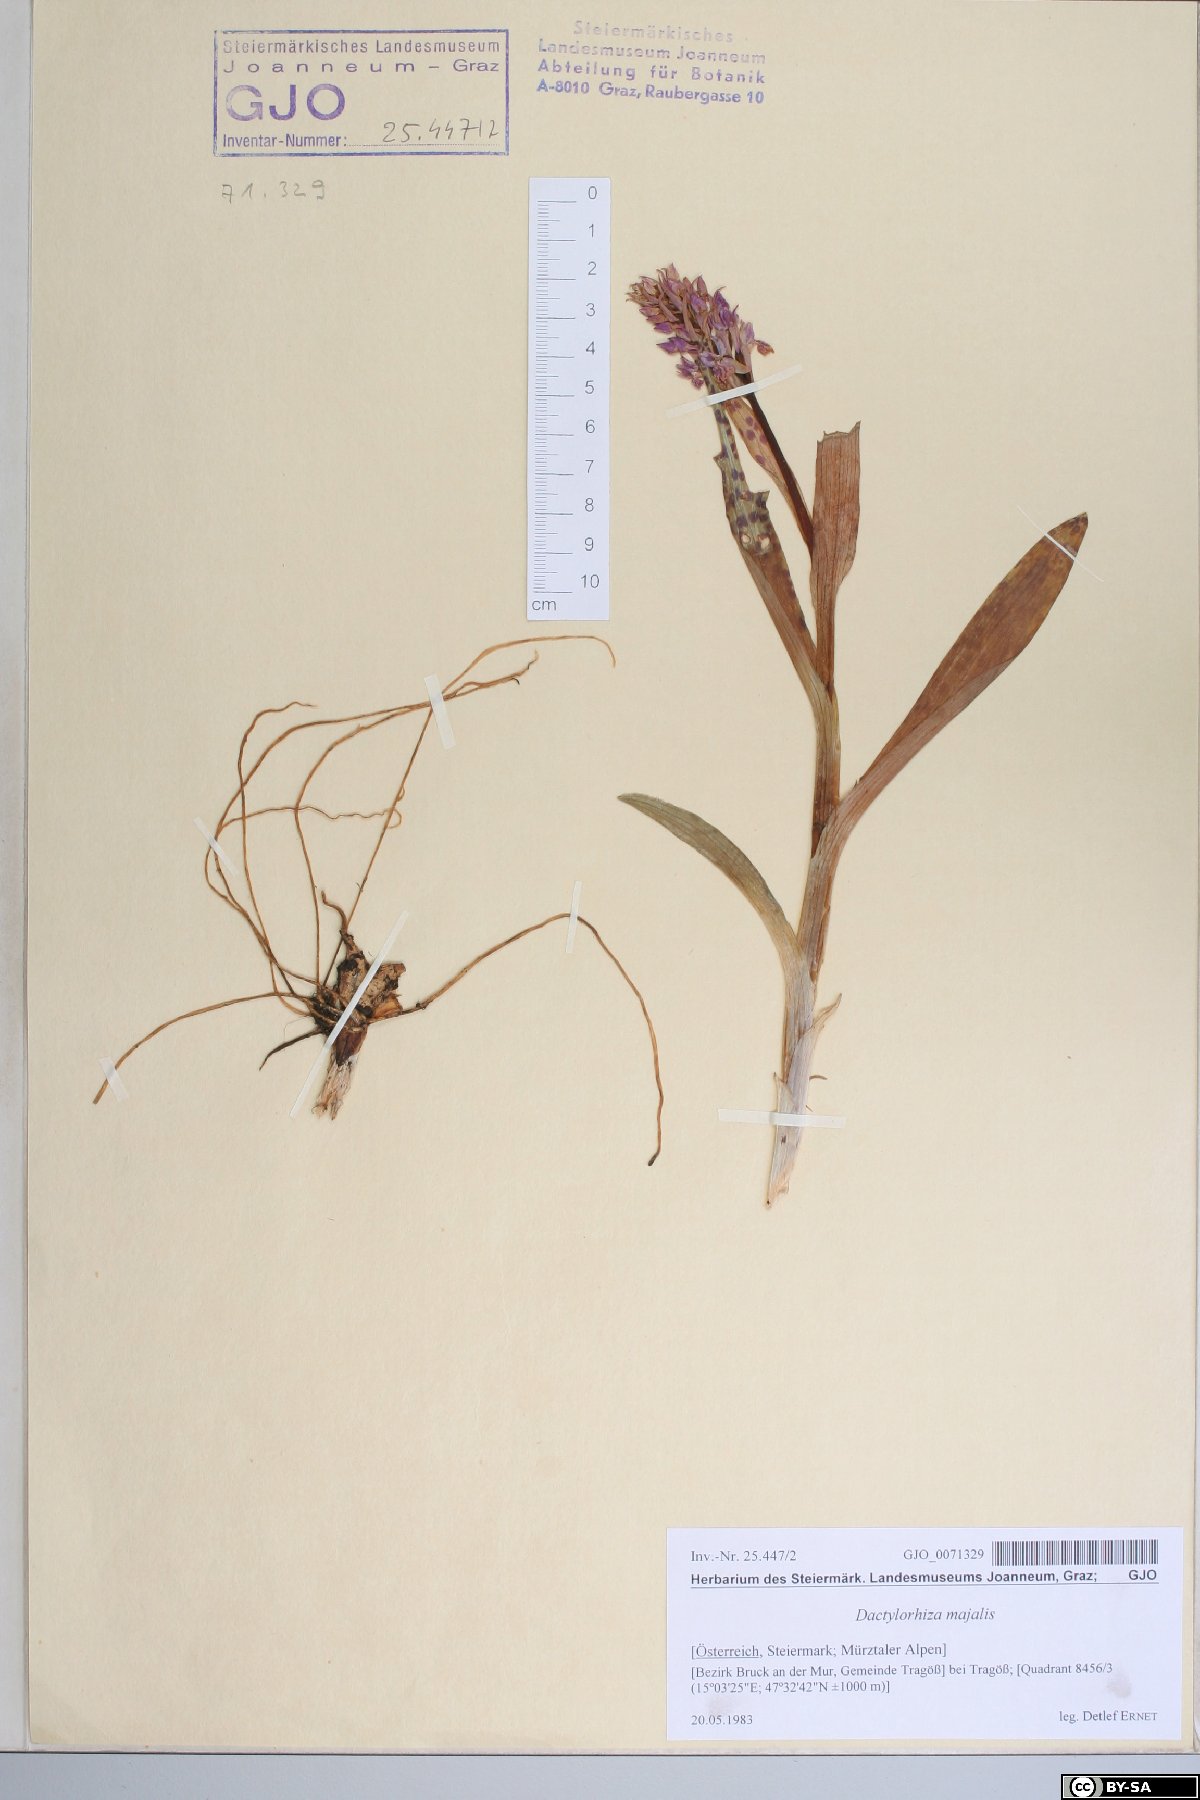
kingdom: Plantae
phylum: Tracheophyta
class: Liliopsida
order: Asparagales
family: Orchidaceae
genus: Dactylorhiza
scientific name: Dactylorhiza majalis
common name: Marsh orchid
